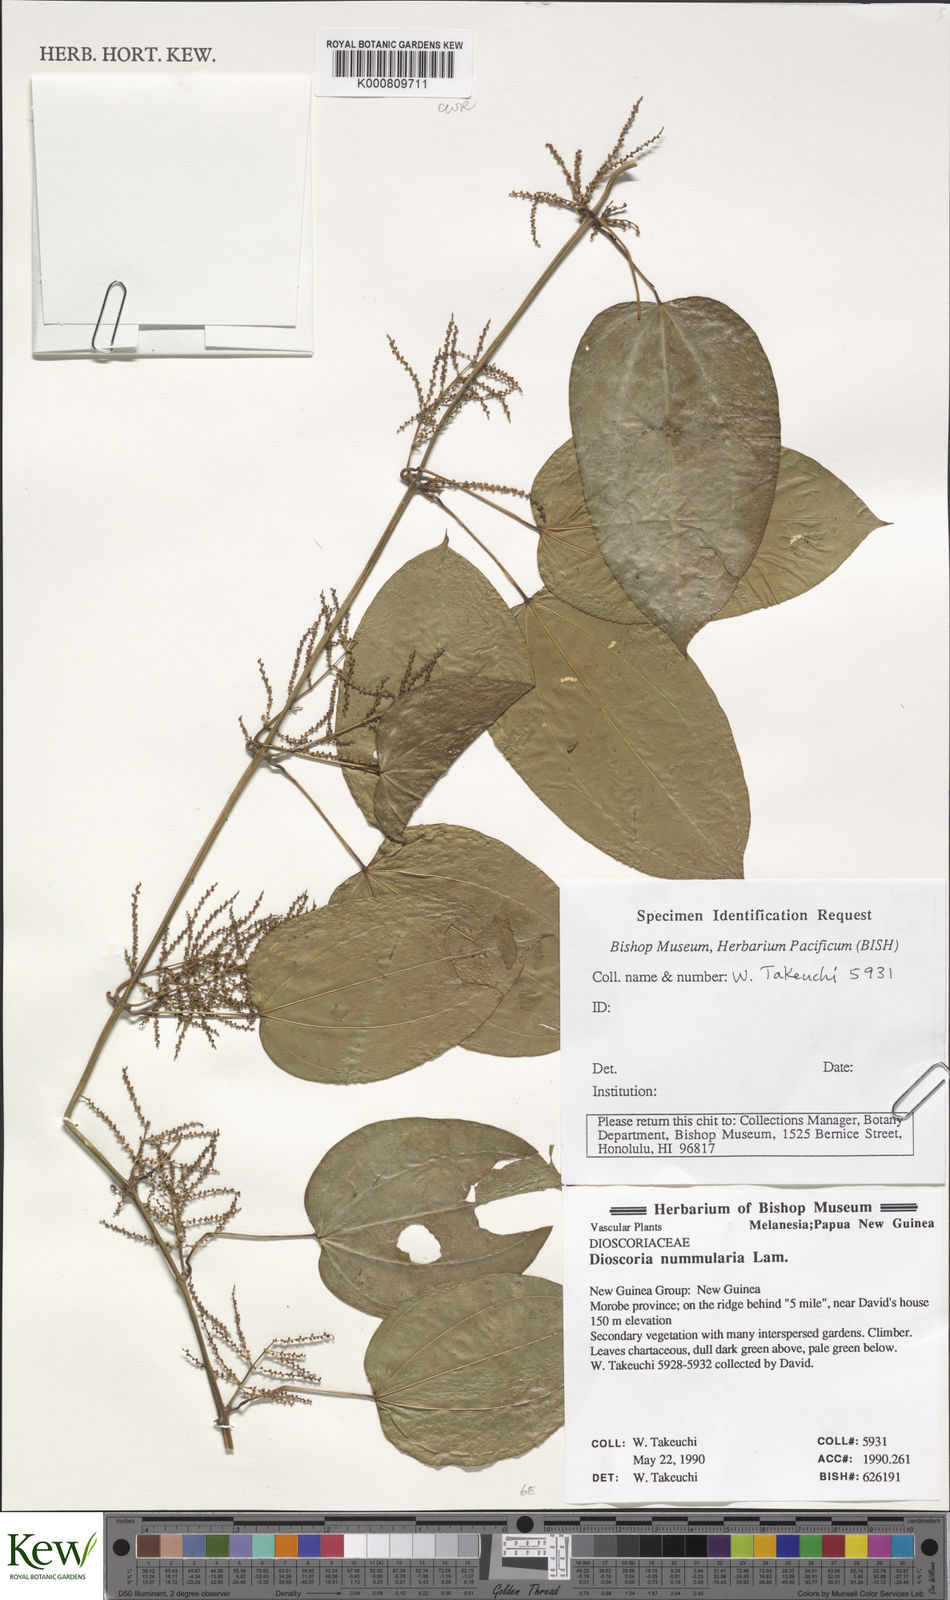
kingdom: Plantae
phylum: Tracheophyta
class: Liliopsida
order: Dioscoreales
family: Dioscoreaceae
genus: Dioscorea
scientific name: Dioscorea nummularia
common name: Pacific yam
